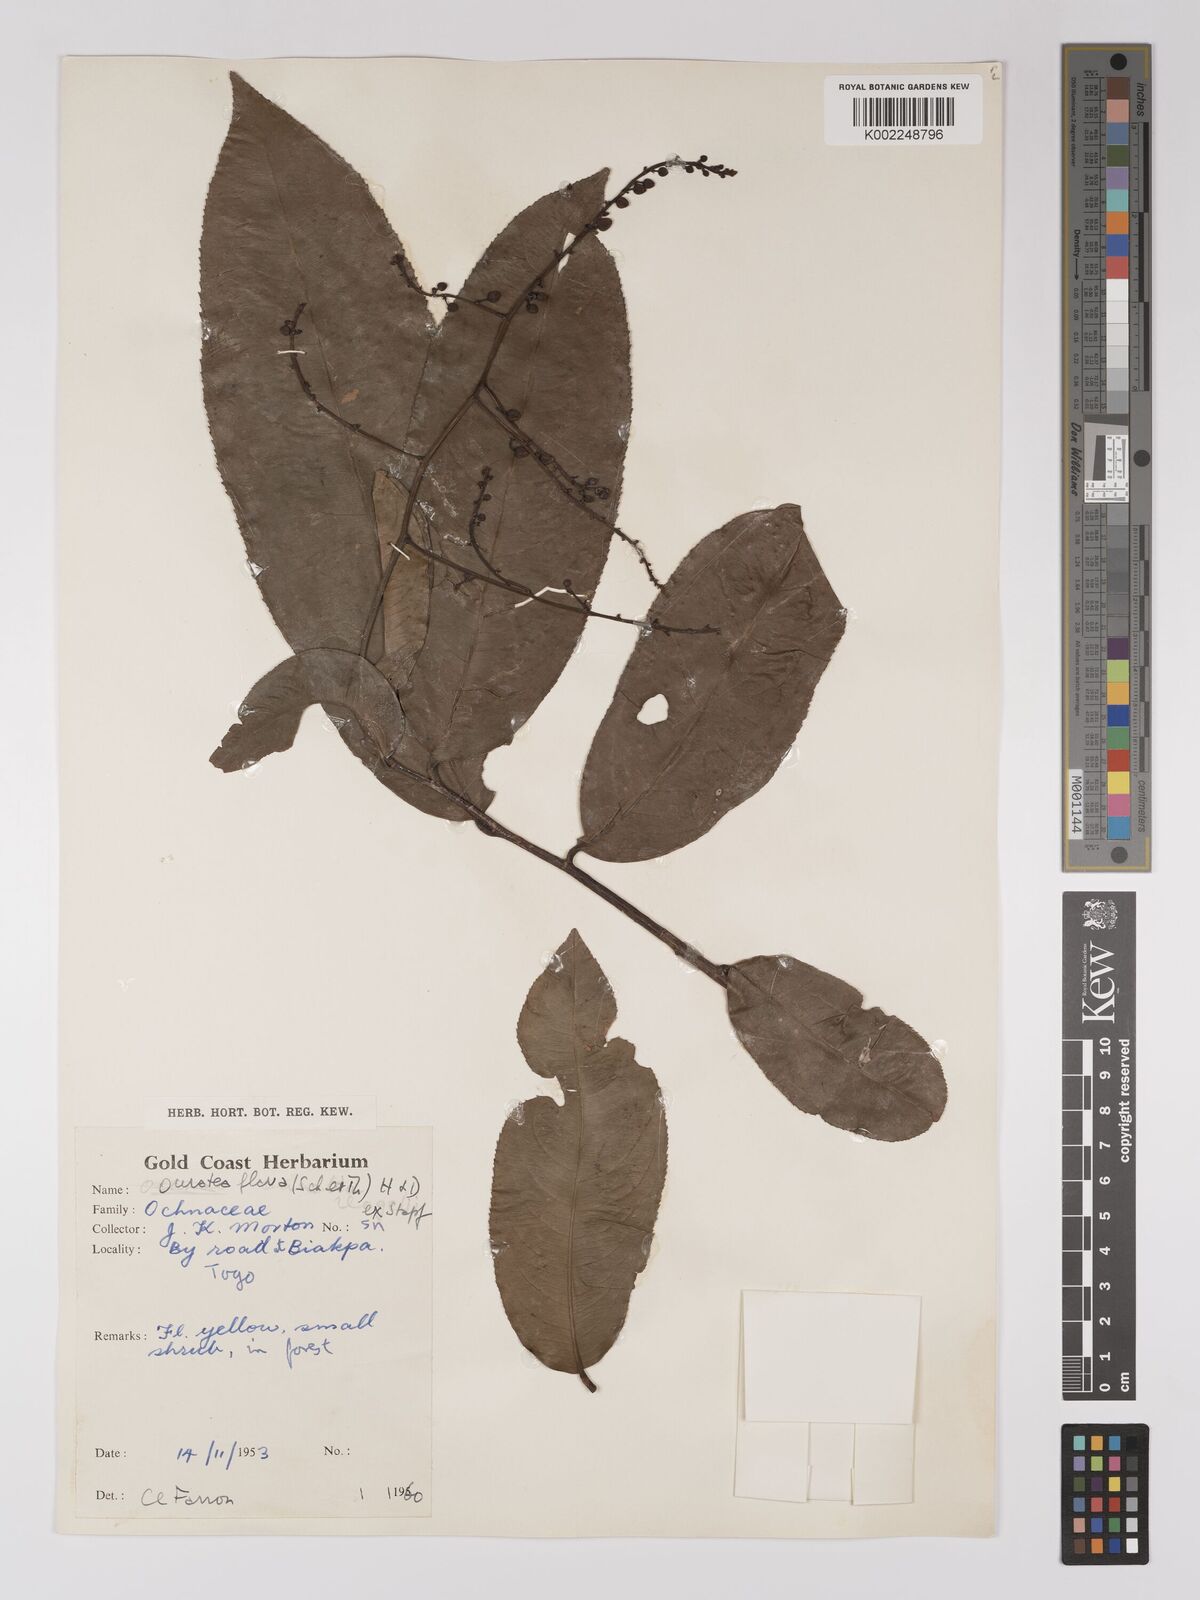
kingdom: Plantae
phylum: Tracheophyta
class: Magnoliopsida
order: Malpighiales
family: Ochnaceae
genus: Campylospermum
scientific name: Campylospermum flavum
